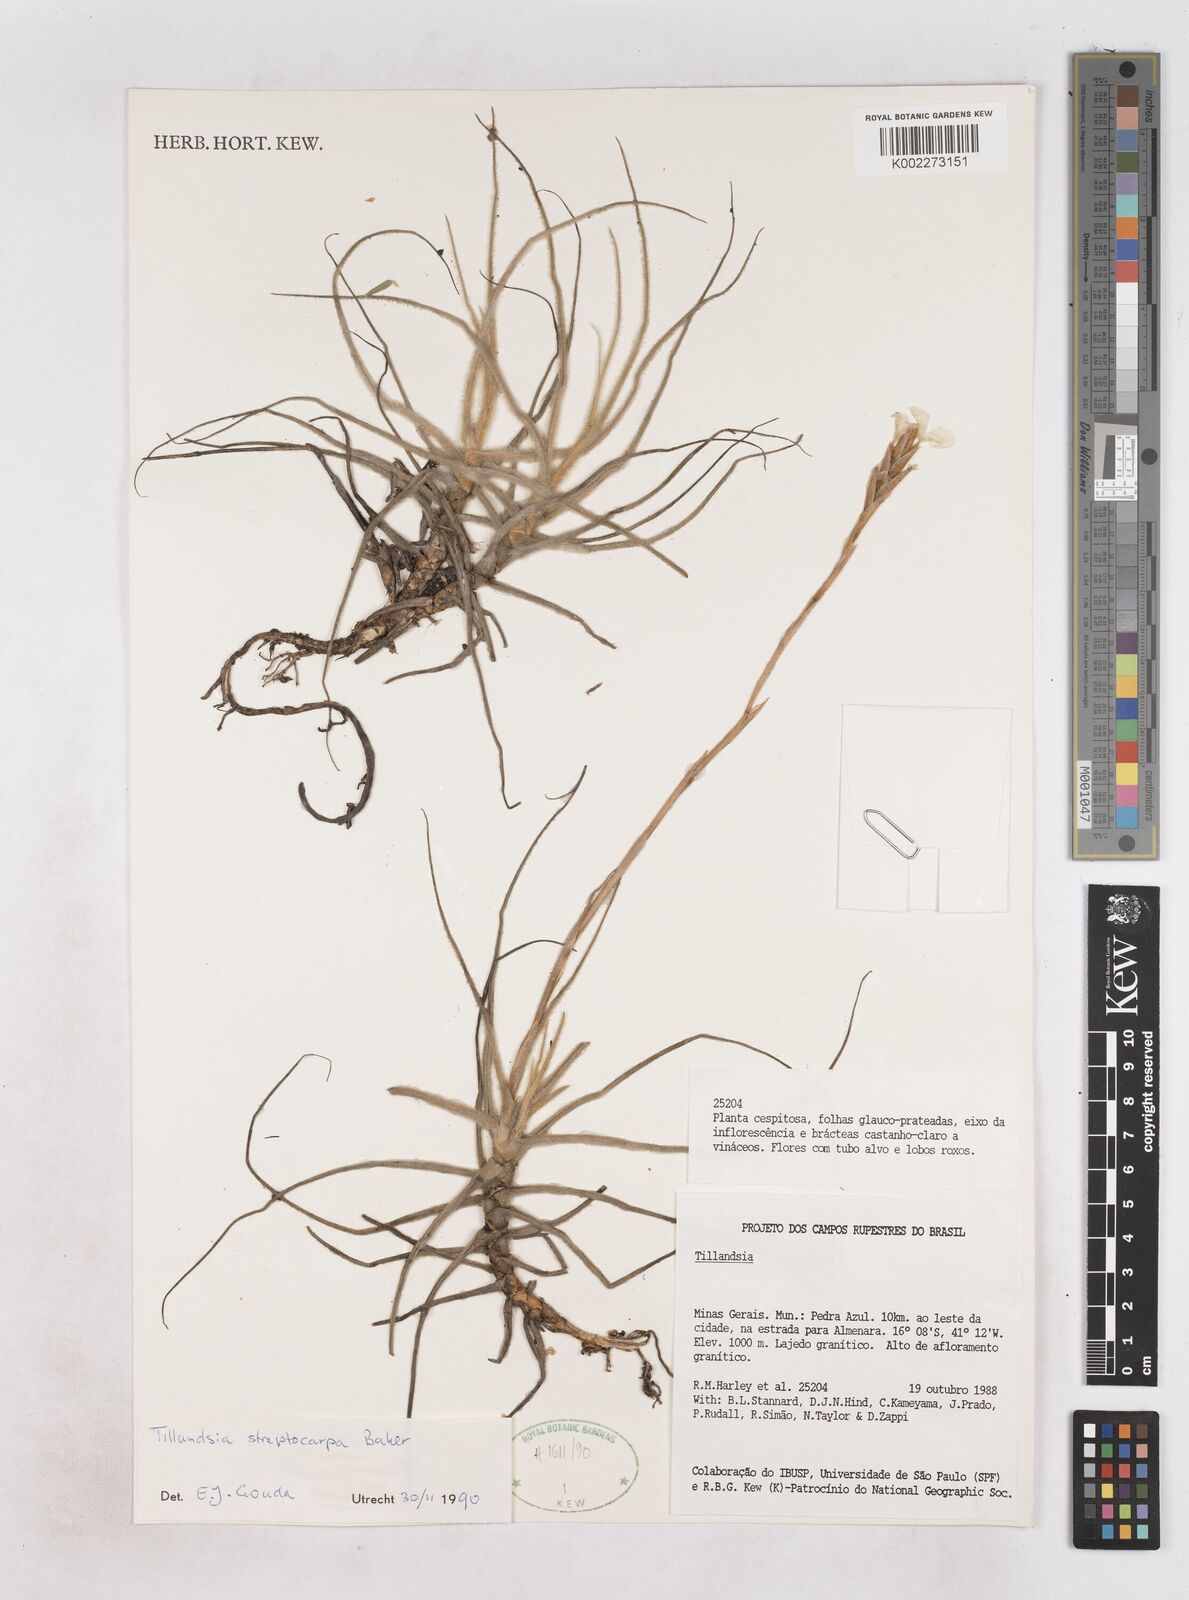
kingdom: Plantae
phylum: Tracheophyta
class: Liliopsida
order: Poales
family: Bromeliaceae
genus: Tillandsia
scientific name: Tillandsia streptocarpa
